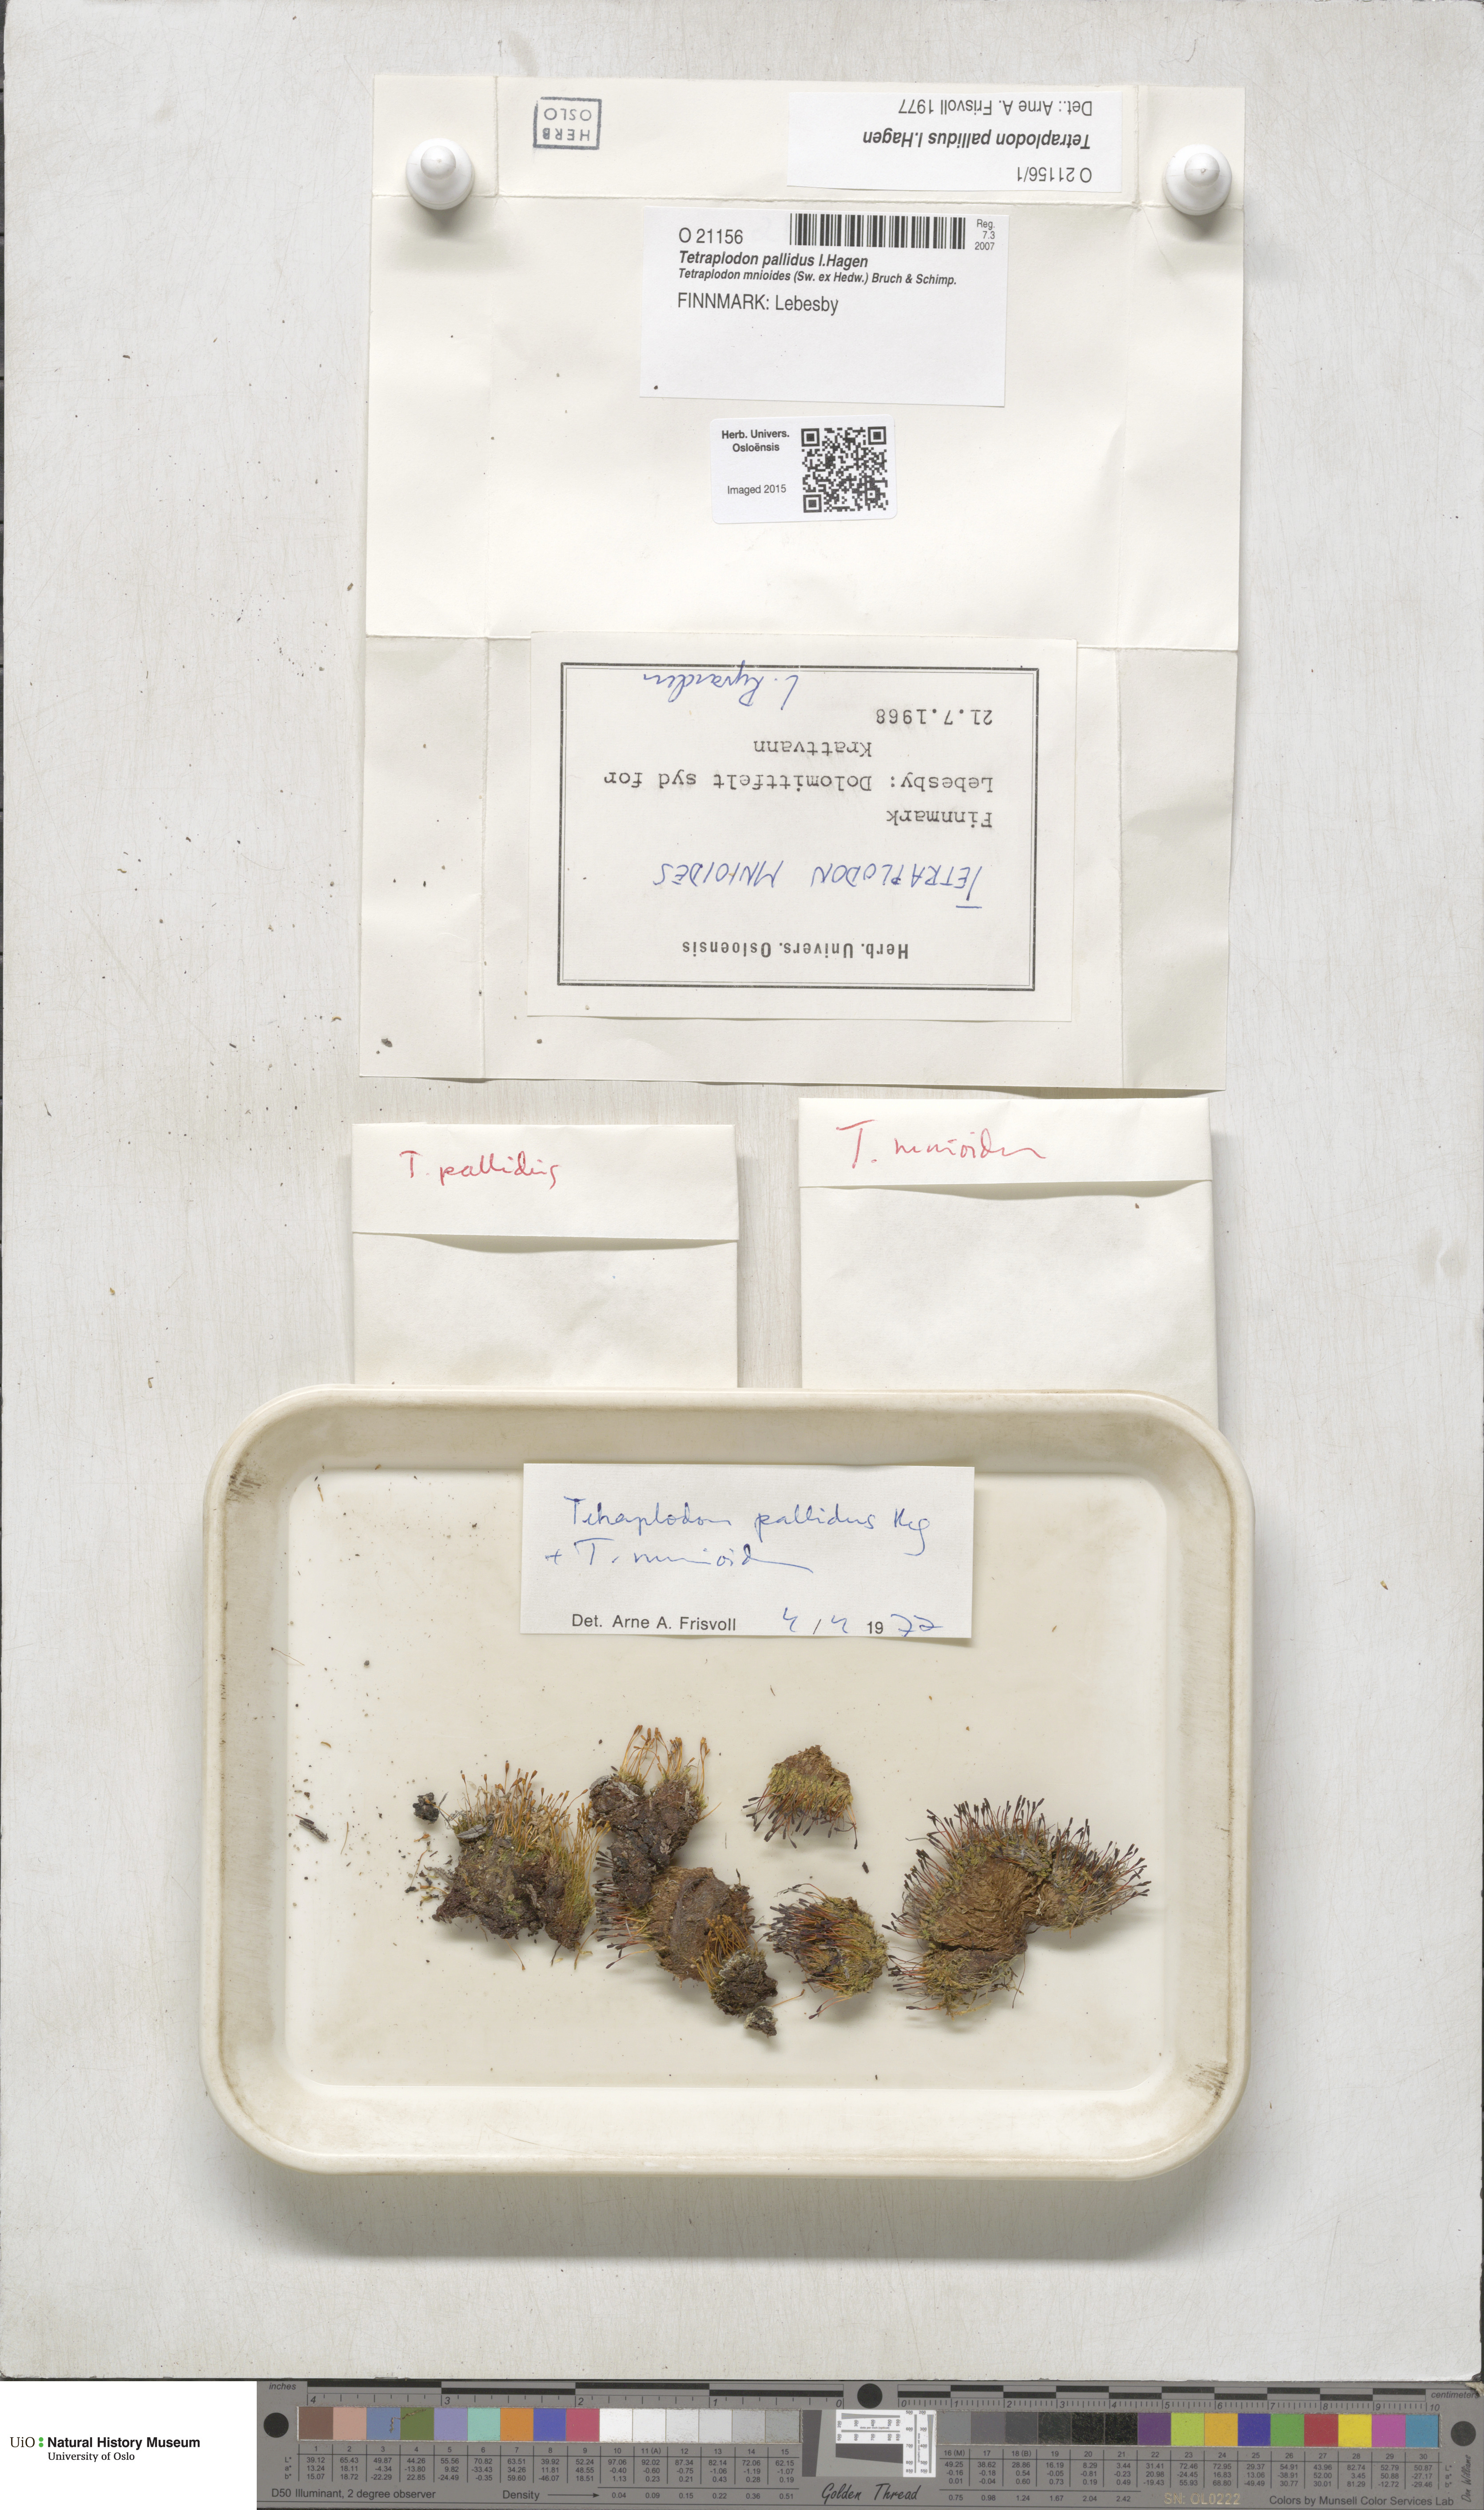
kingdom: Plantae
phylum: Bryophyta
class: Bryopsida
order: Splachnales
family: Splachnaceae
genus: Tetraplodon
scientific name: Tetraplodon pallidus
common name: Pale nitrogen moss
